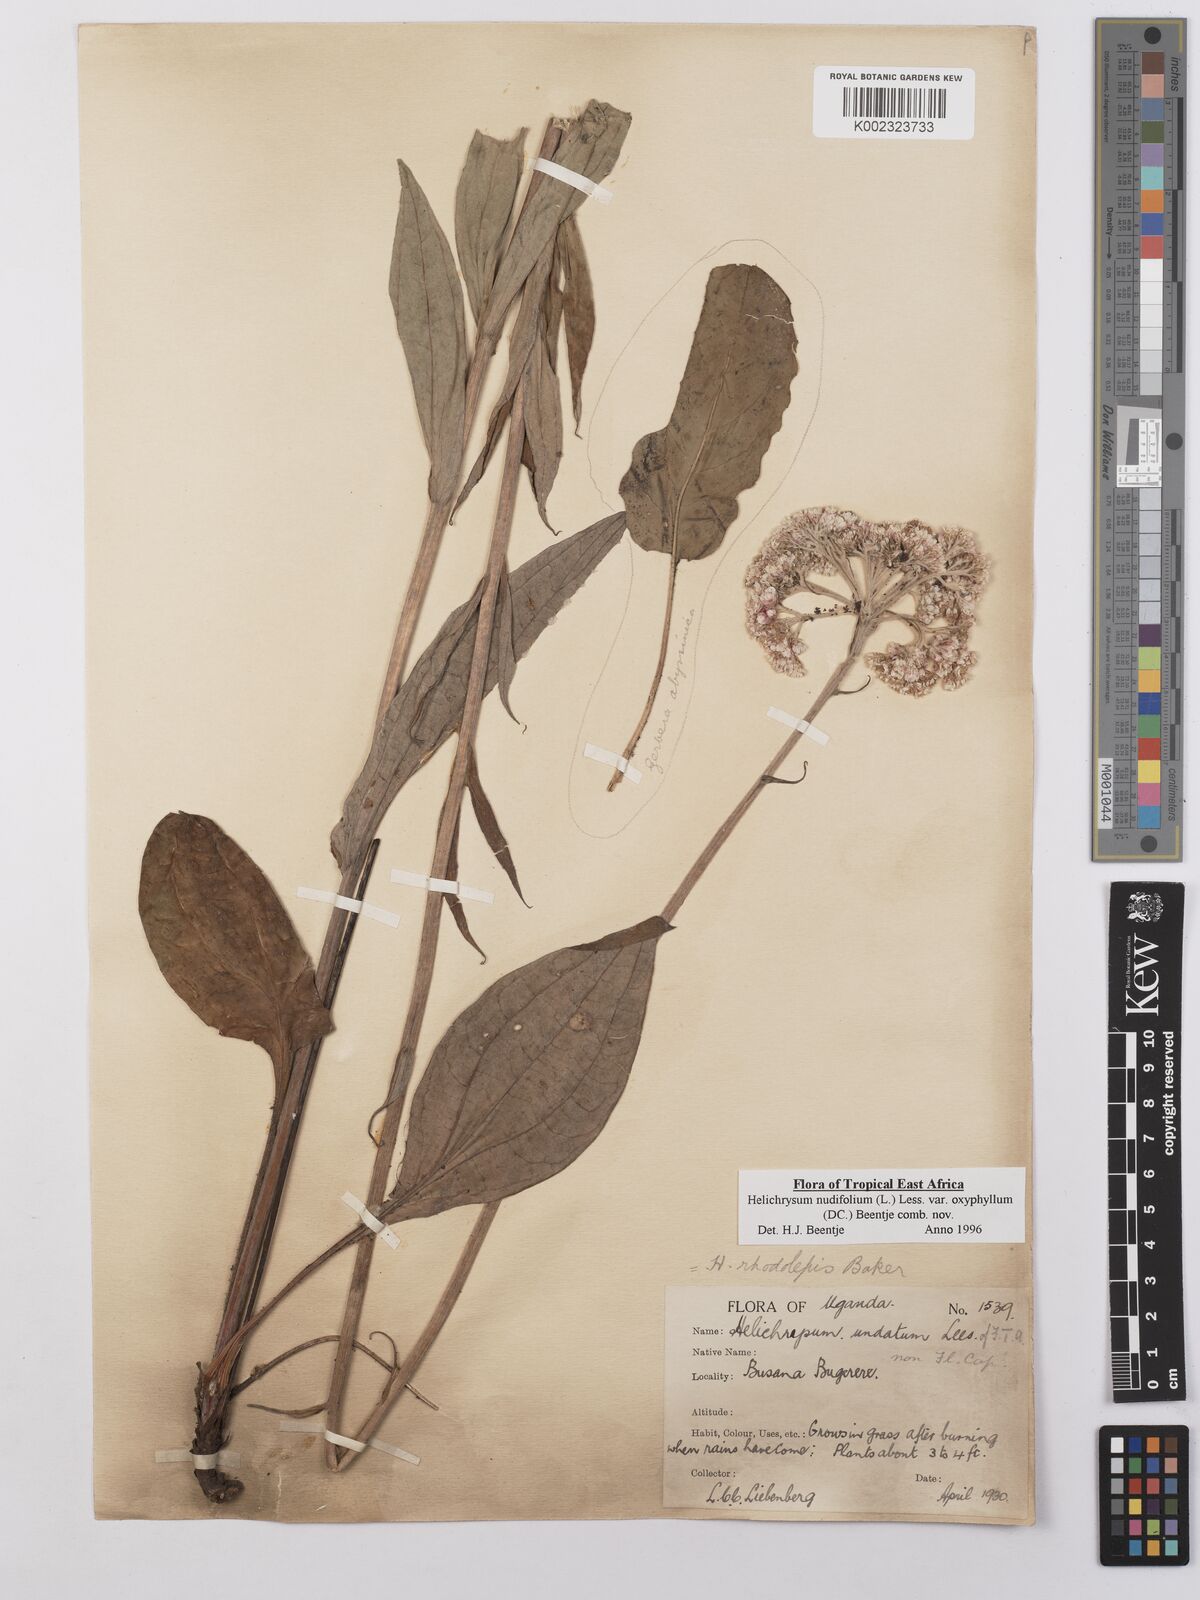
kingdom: Plantae
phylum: Tracheophyta
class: Magnoliopsida
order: Asterales
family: Asteraceae
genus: Helichrysum
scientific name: Helichrysum nudifolium
